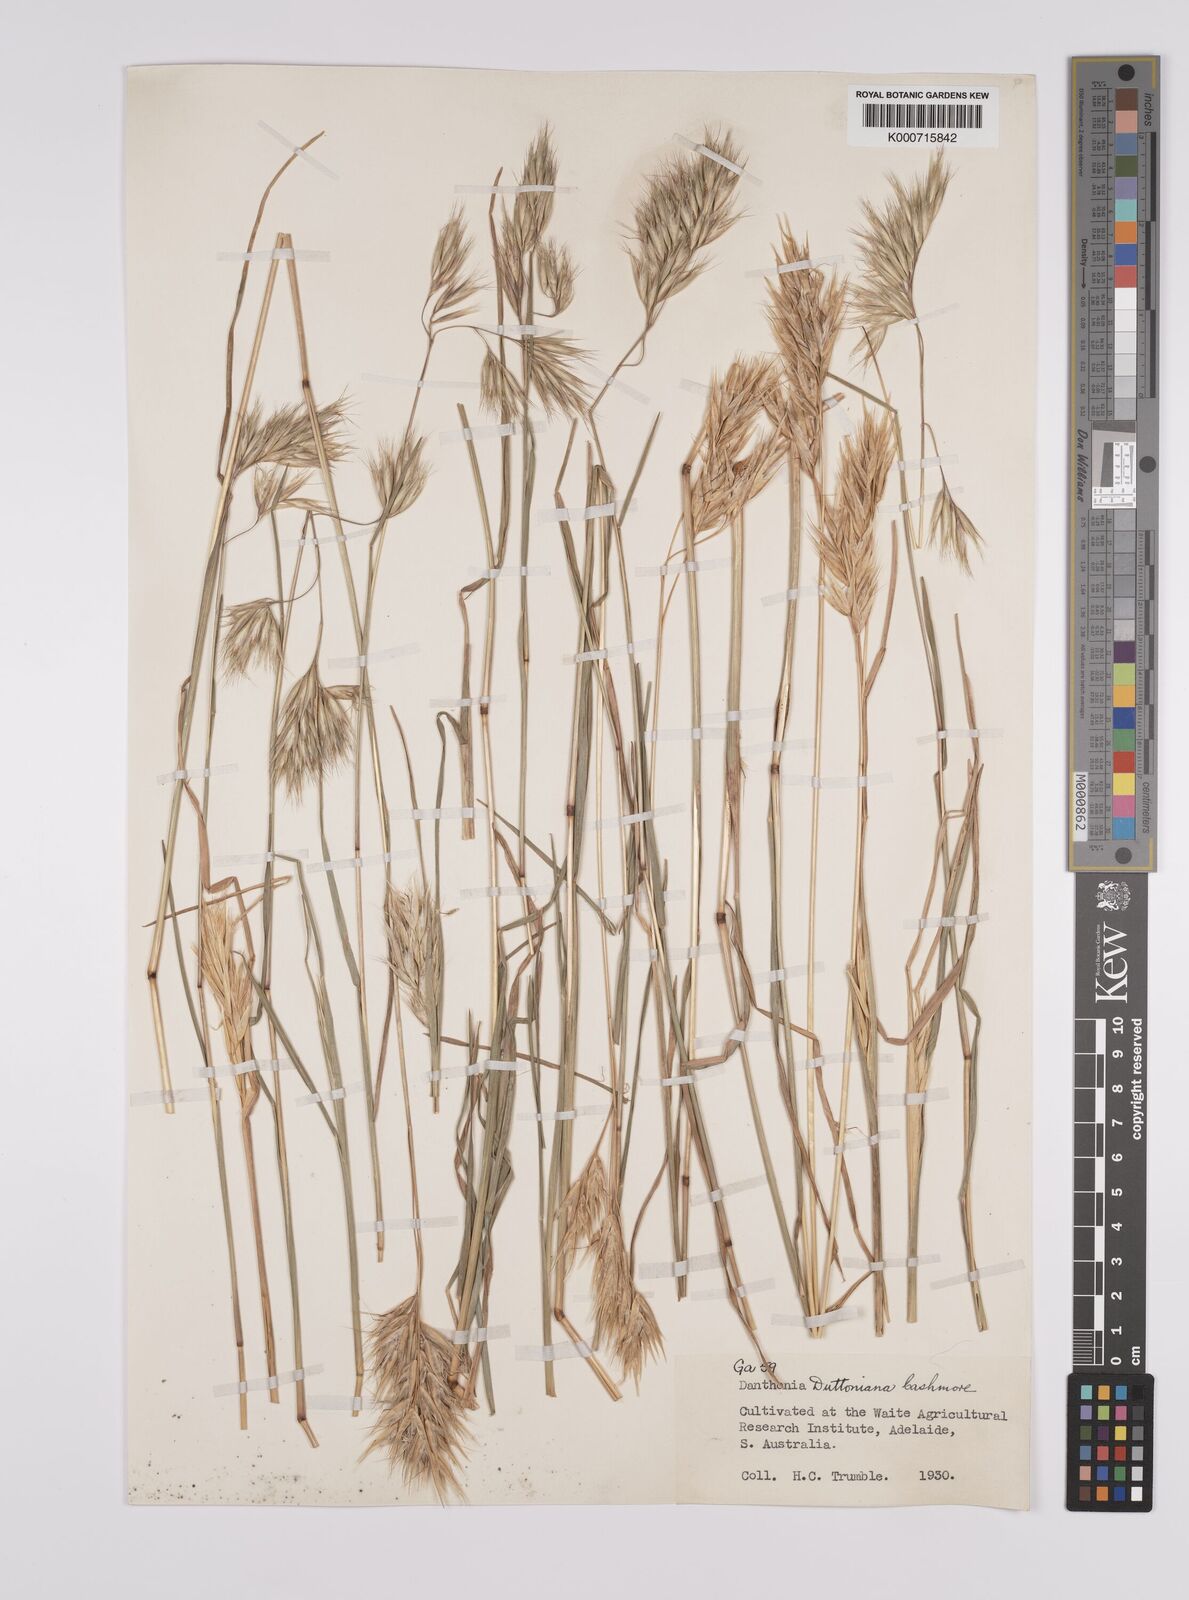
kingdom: Plantae
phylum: Tracheophyta
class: Liliopsida
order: Poales
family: Poaceae
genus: Rytidosperma
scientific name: Rytidosperma duttonianum
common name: Brown-black wallaby grass
